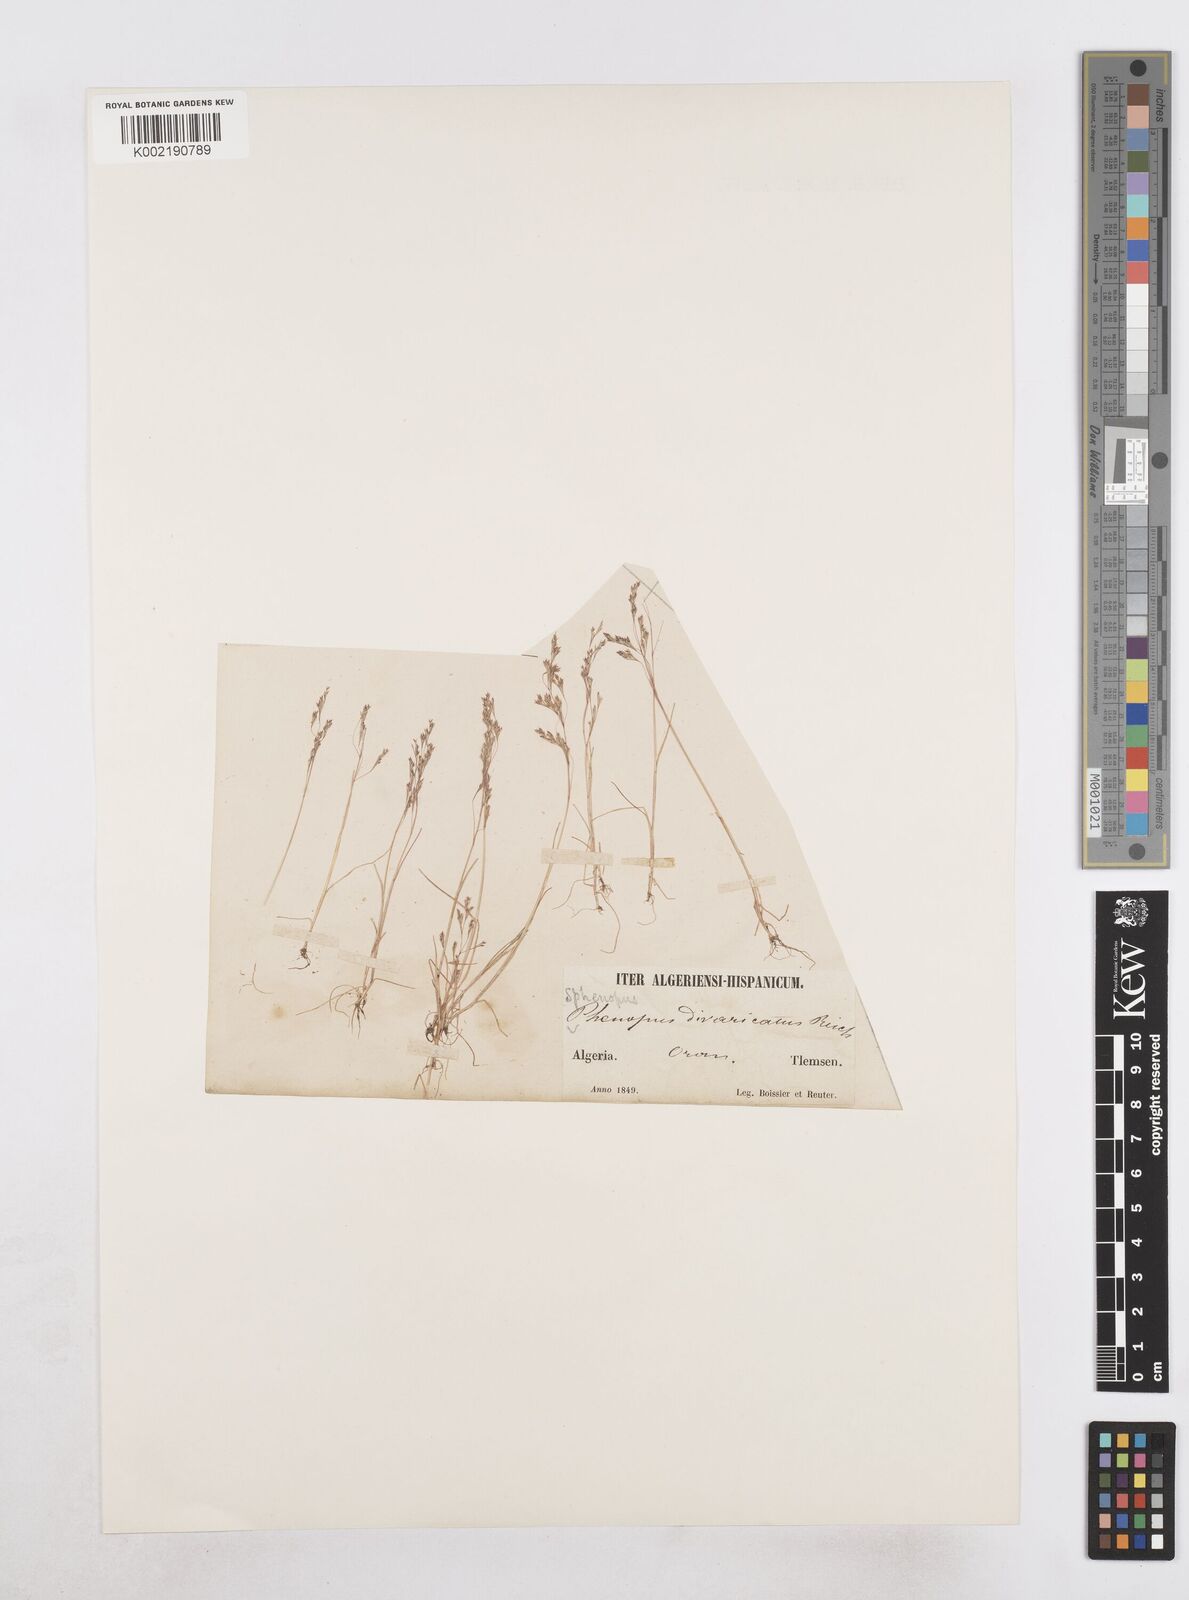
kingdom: Plantae
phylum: Tracheophyta
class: Liliopsida
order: Poales
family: Poaceae
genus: Sphenopus
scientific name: Sphenopus divaricatus
